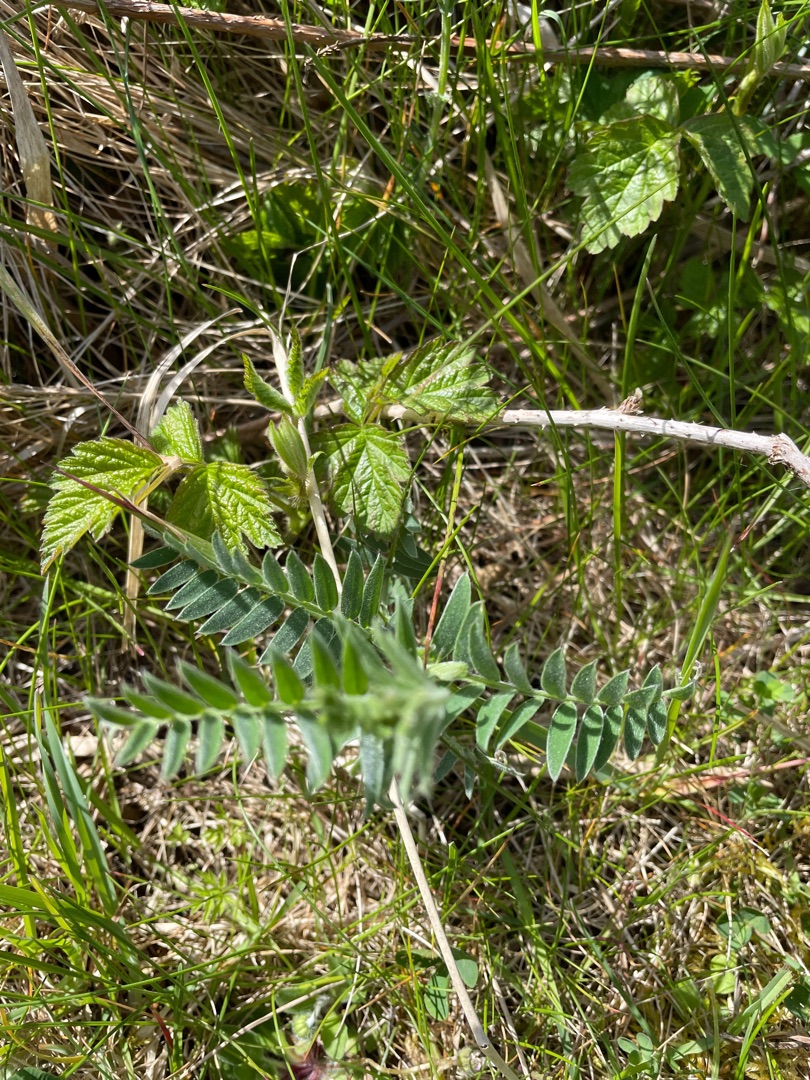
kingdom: Plantae
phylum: Tracheophyta
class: Magnoliopsida
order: Fabales
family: Fabaceae
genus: Vicia
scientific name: Vicia cracca
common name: Muse-vikke
